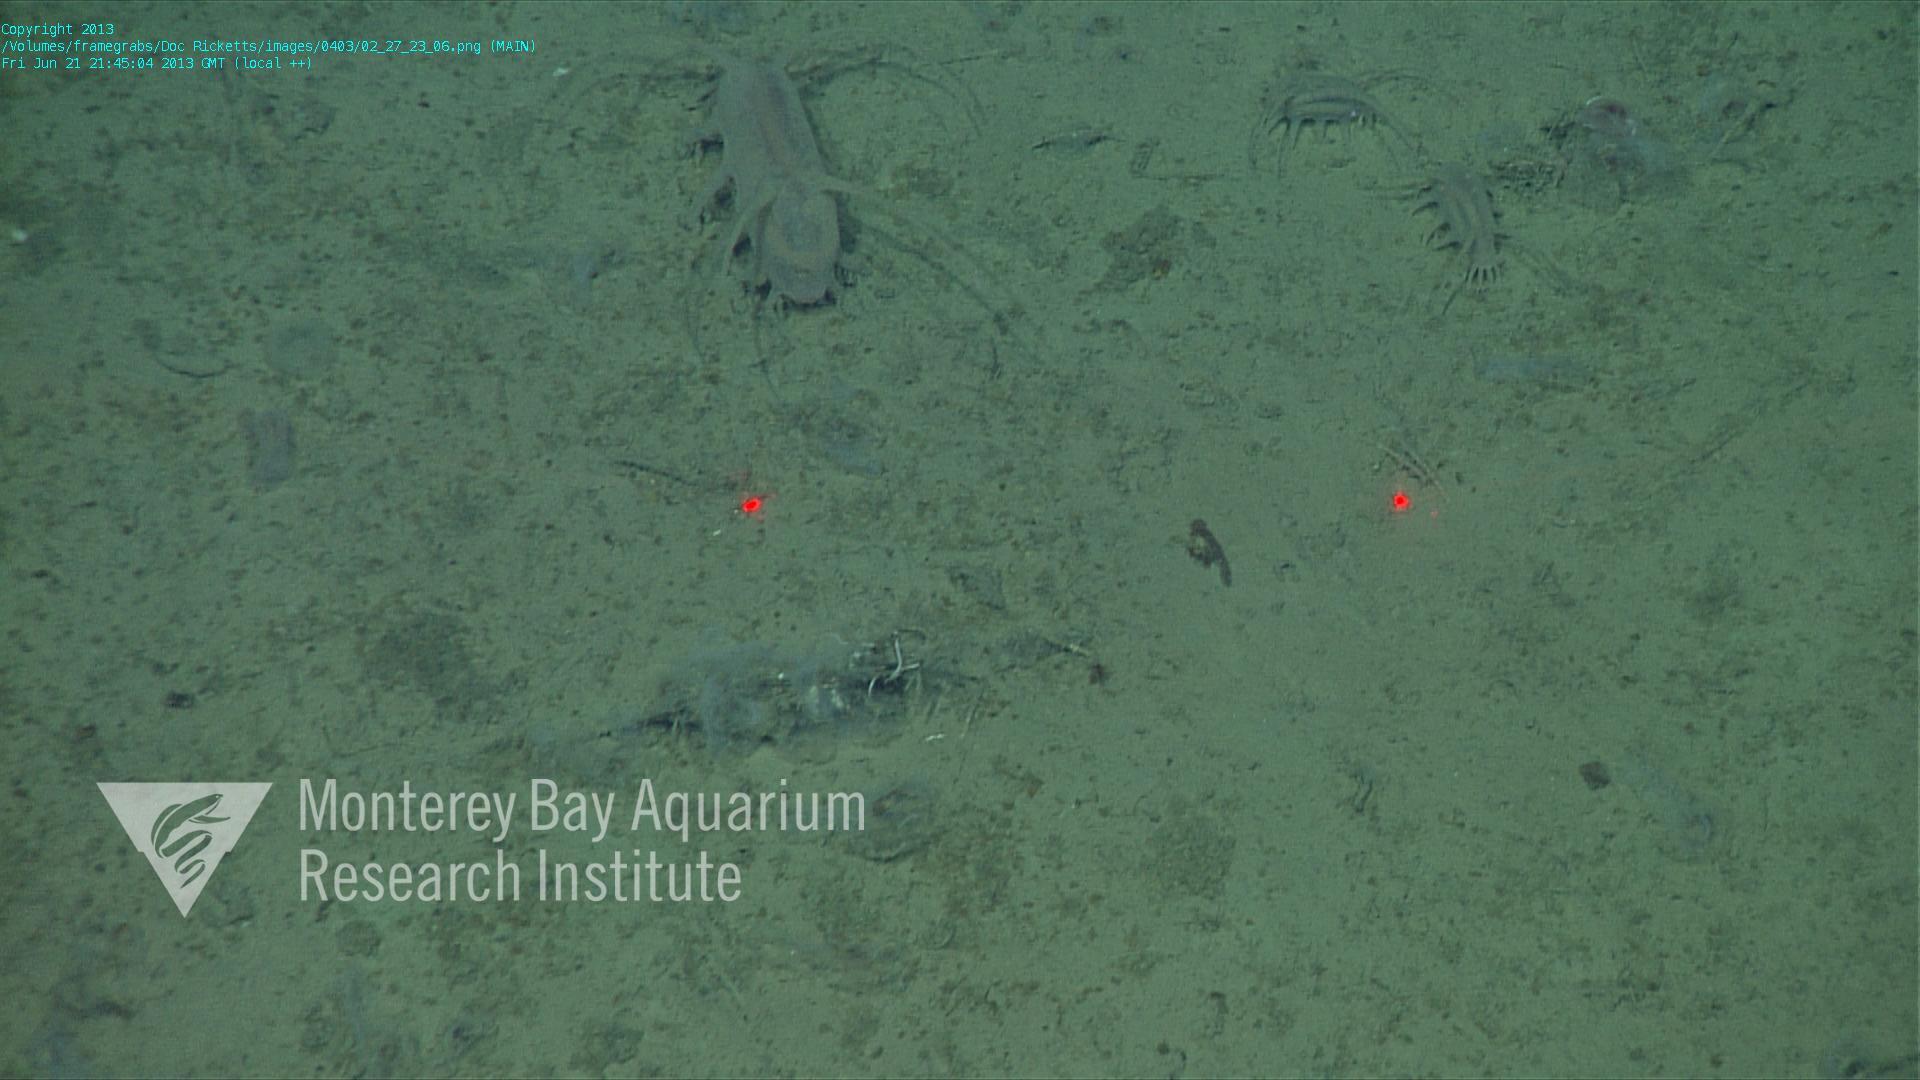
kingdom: Animalia
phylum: Porifera
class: Hexactinellida
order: Lyssacinosida
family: Rossellidae
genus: Bathydorus
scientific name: Bathydorus spinosus
